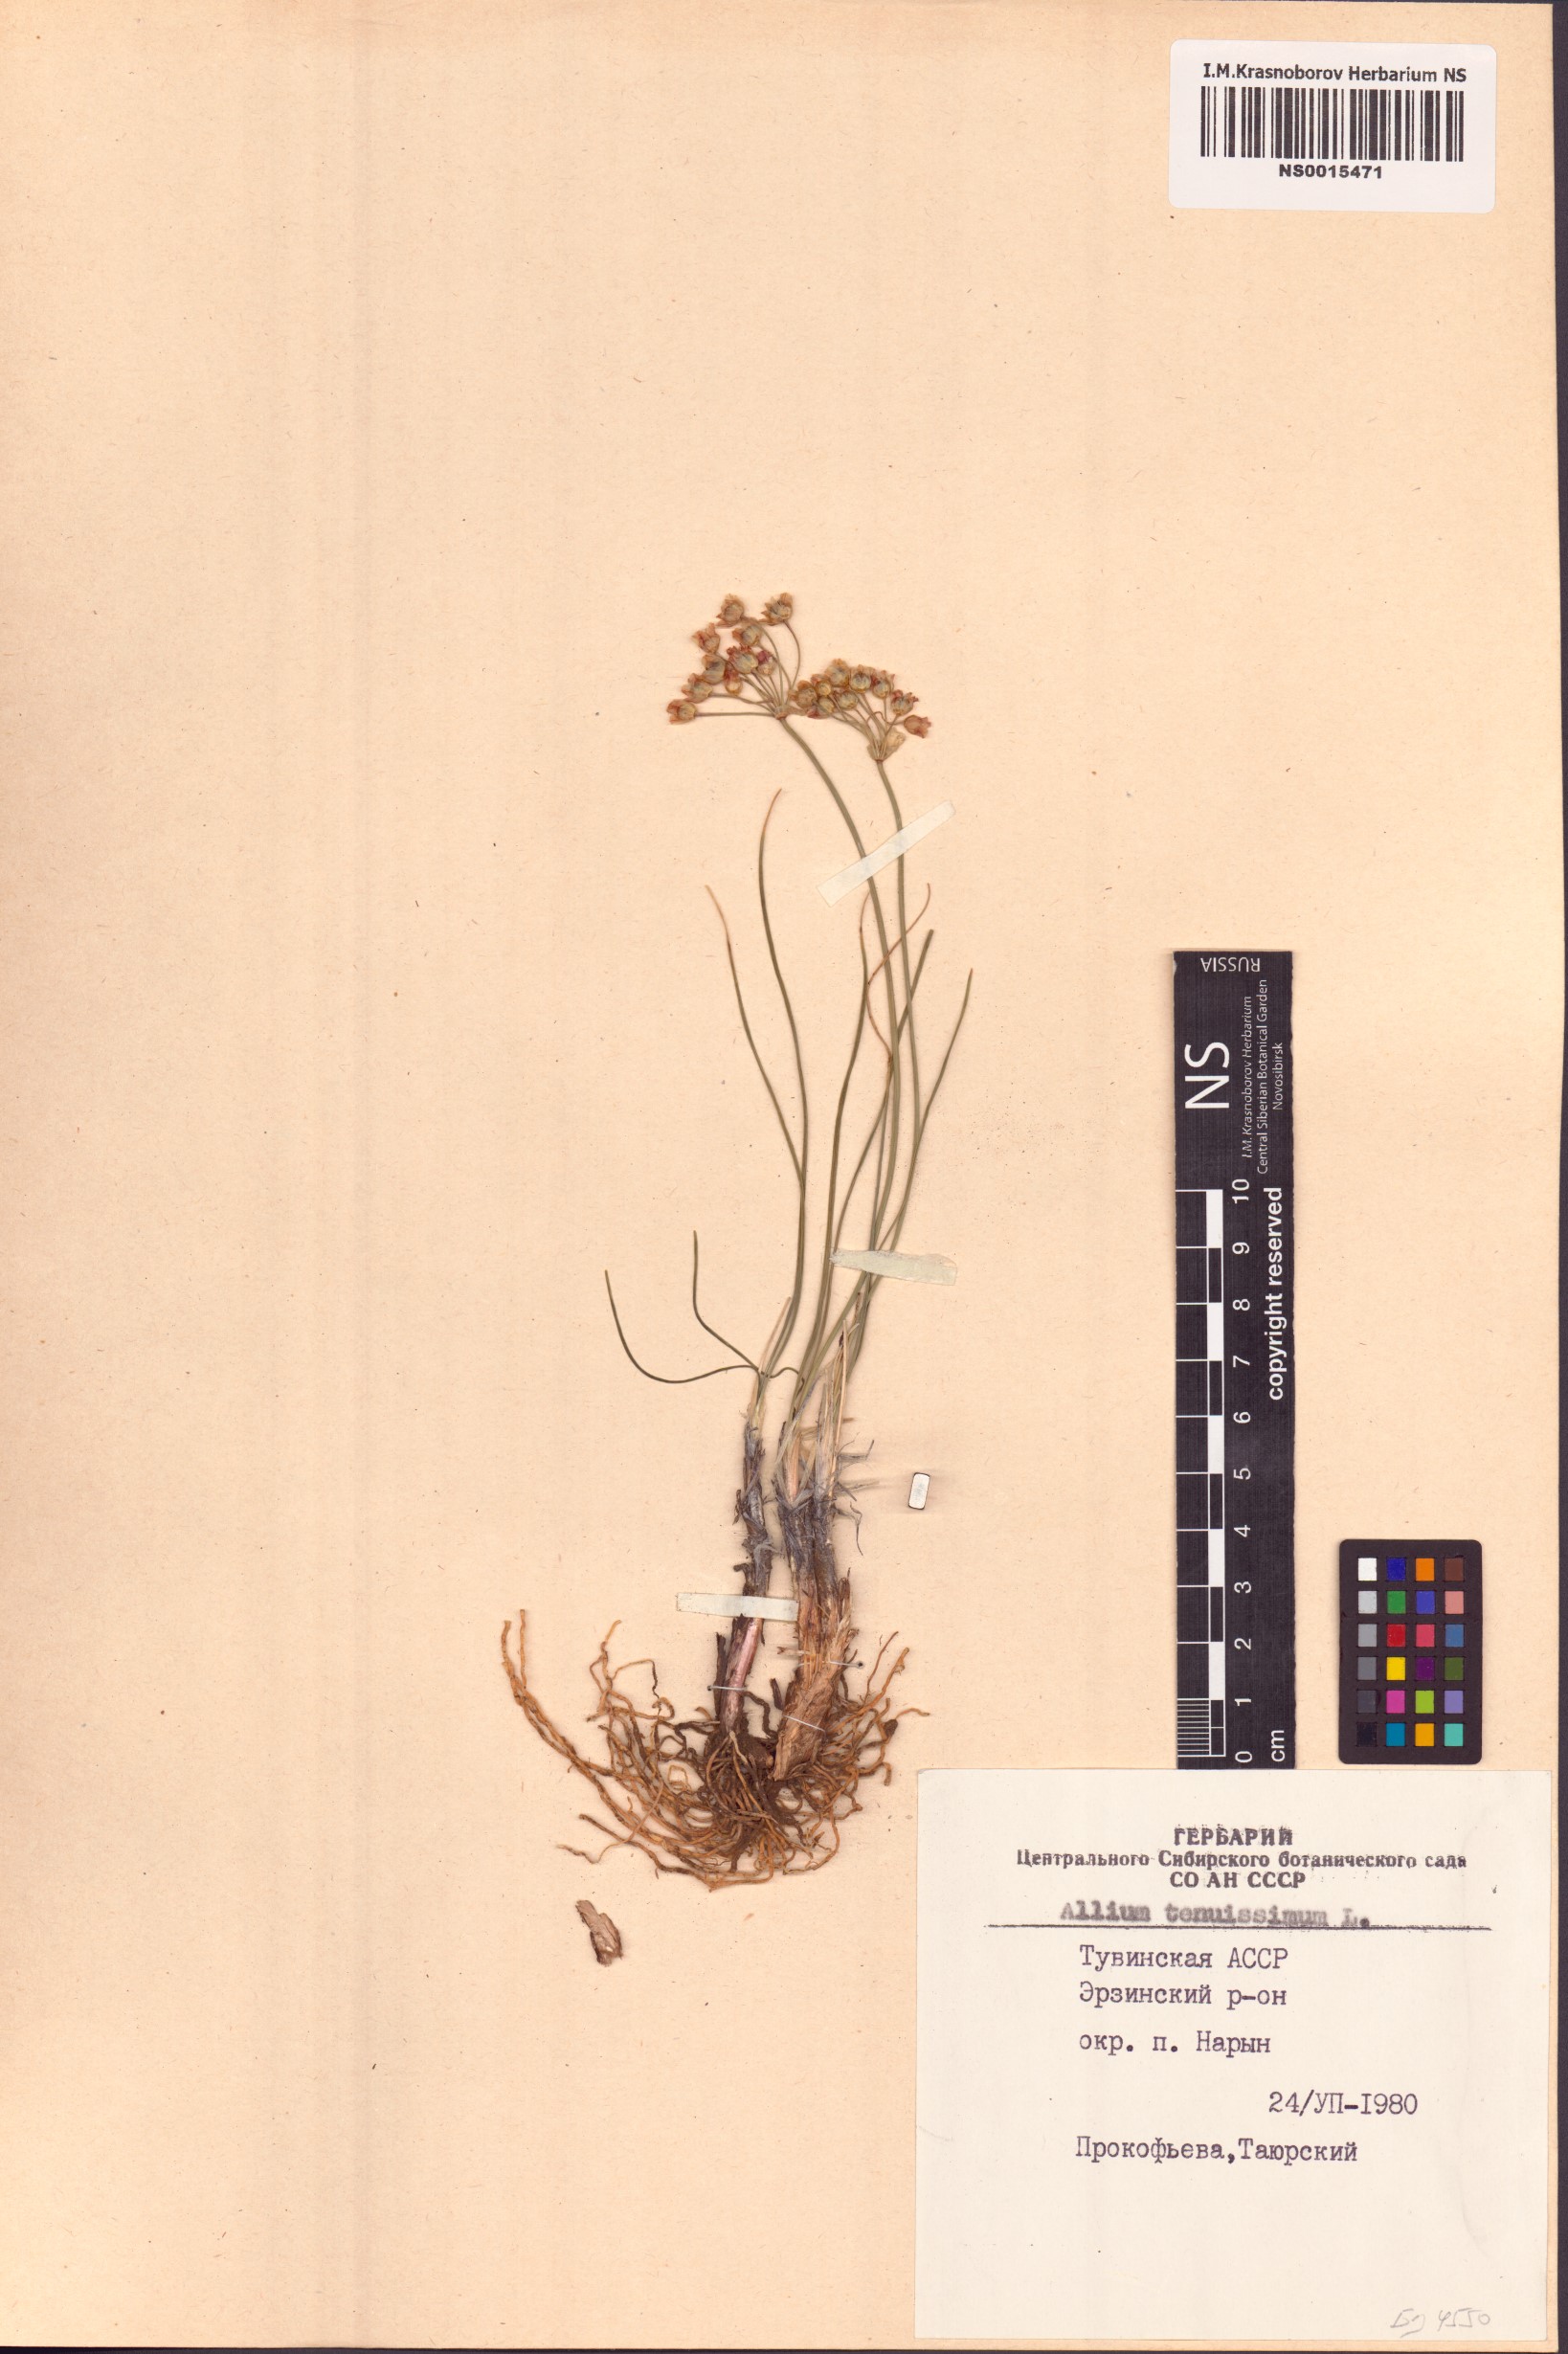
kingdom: Plantae
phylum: Tracheophyta
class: Liliopsida
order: Asparagales
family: Amaryllidaceae
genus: Allium
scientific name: Allium tenuissimum
